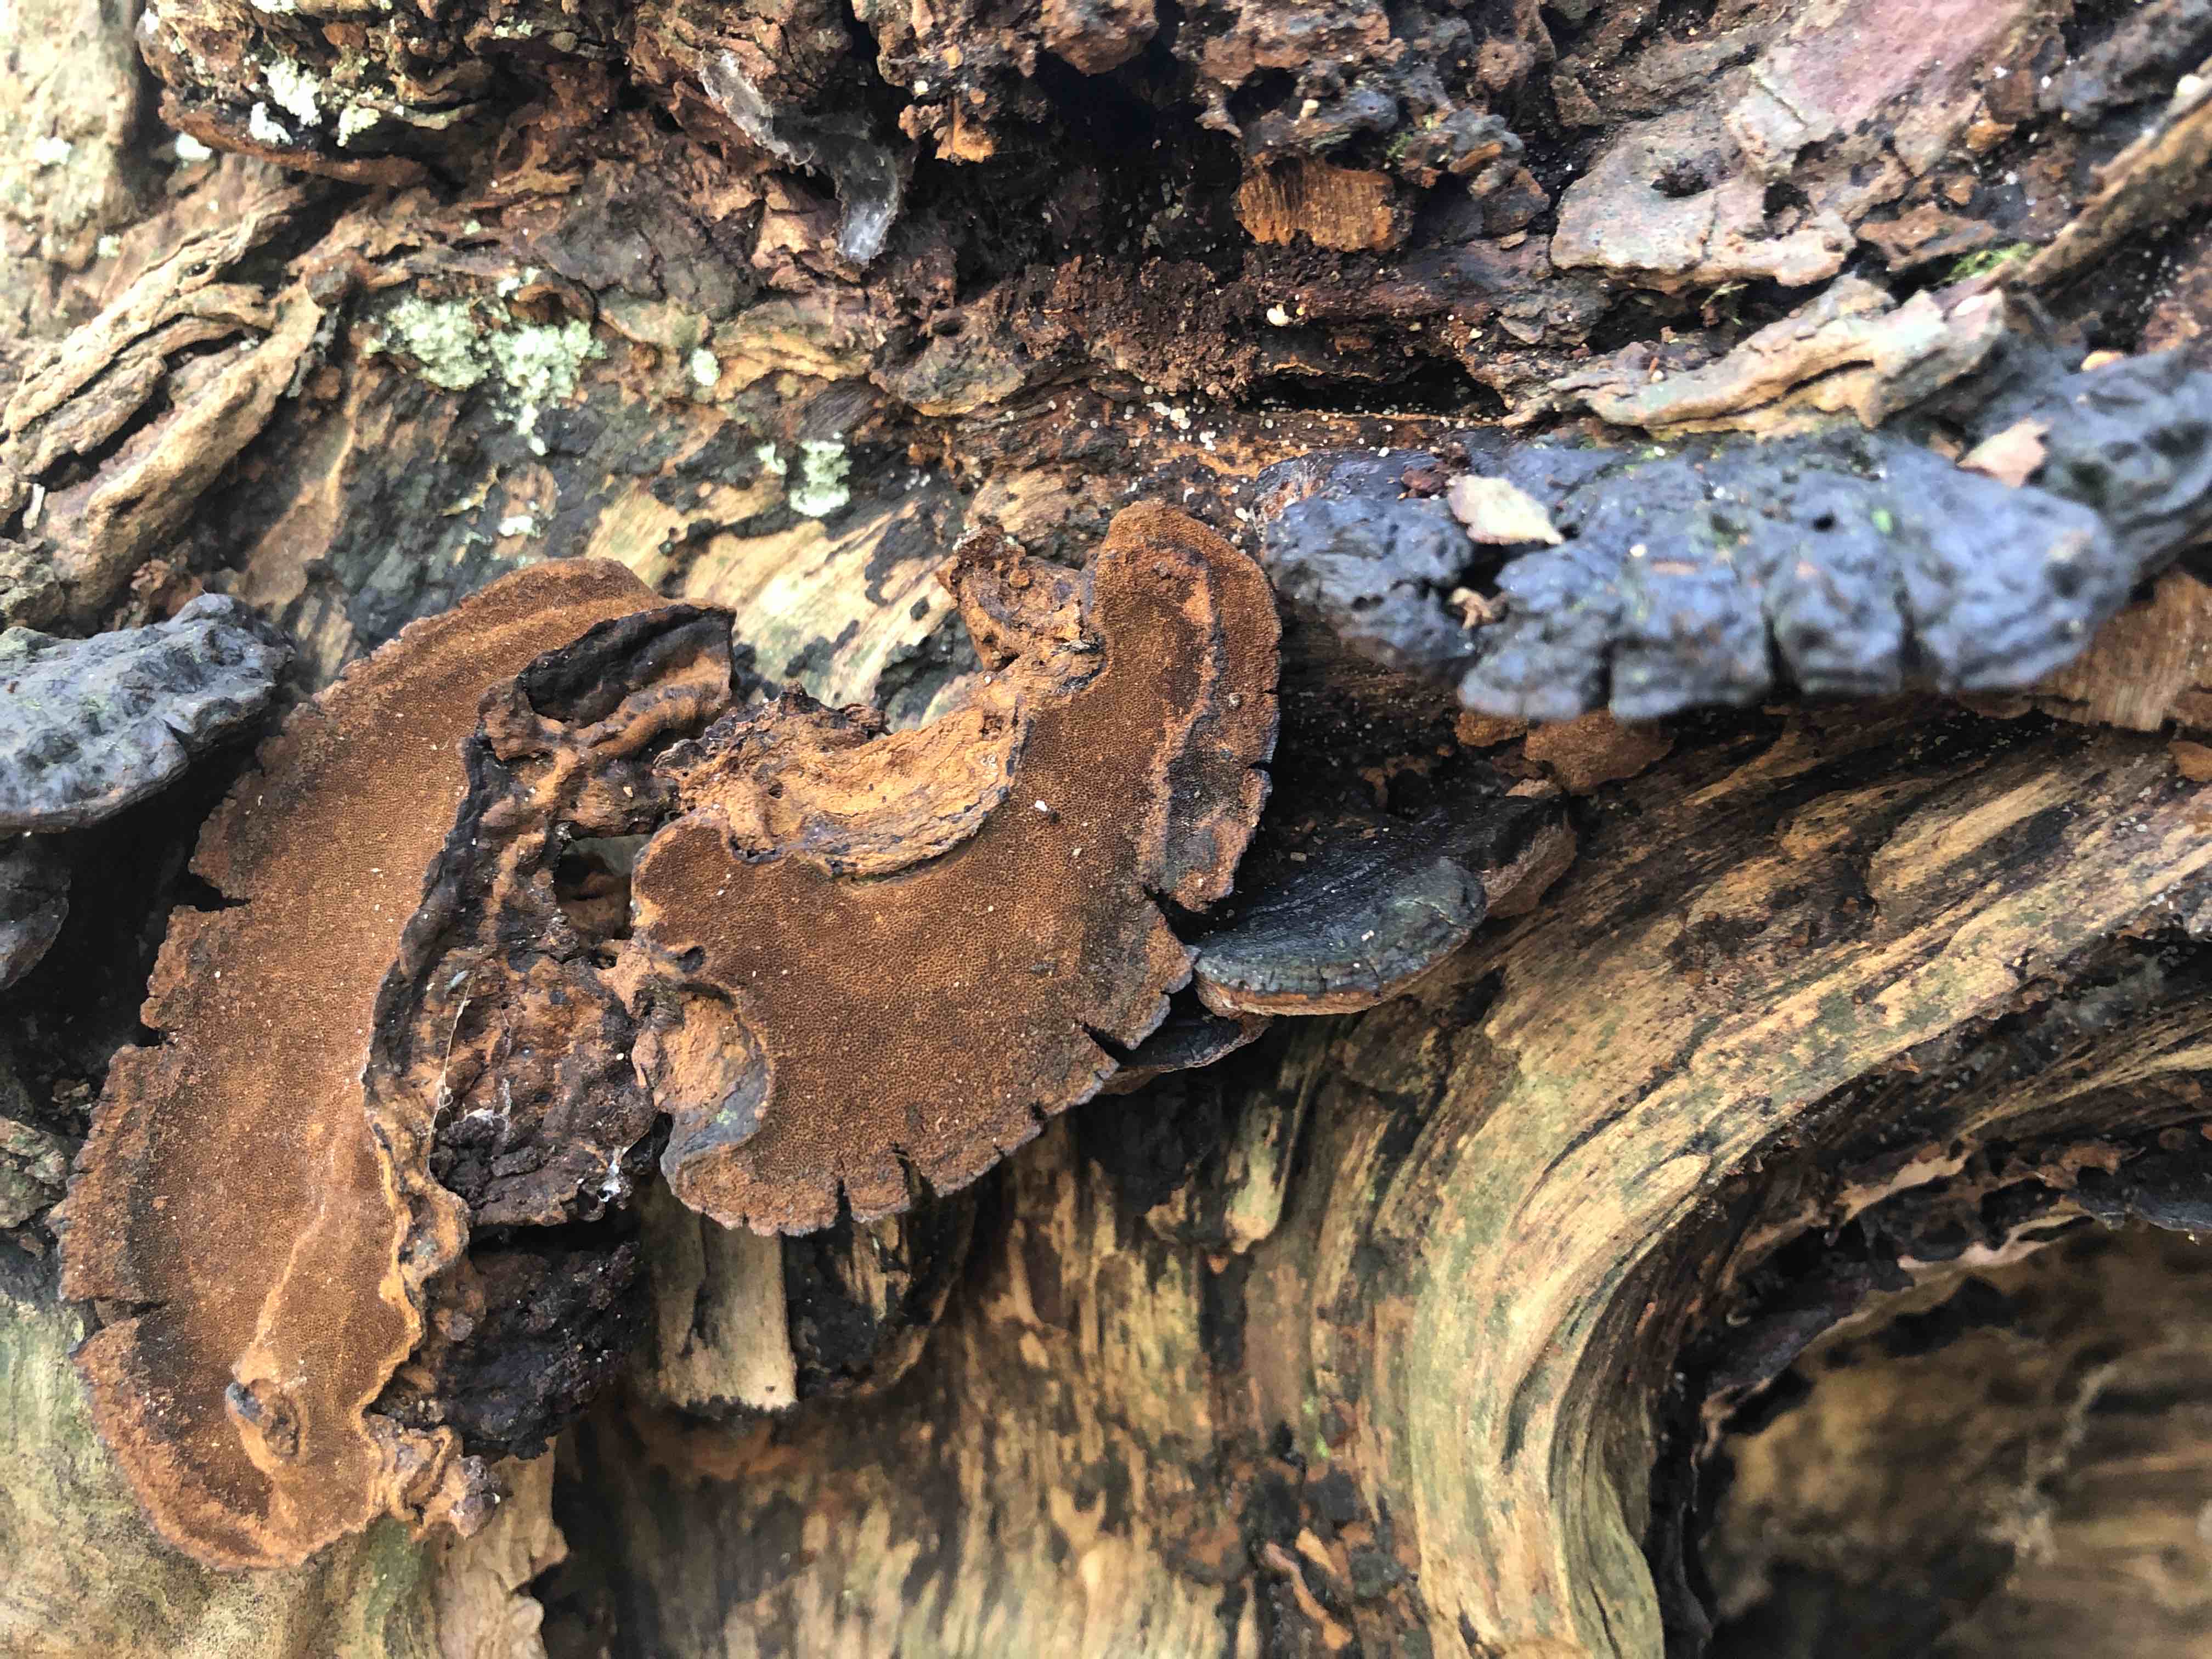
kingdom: Fungi
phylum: Basidiomycota
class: Agaricomycetes
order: Hymenochaetales
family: Hymenochaetaceae
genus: Phellinopsis
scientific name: Phellinopsis conchata
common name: pile-ildporesvamp
